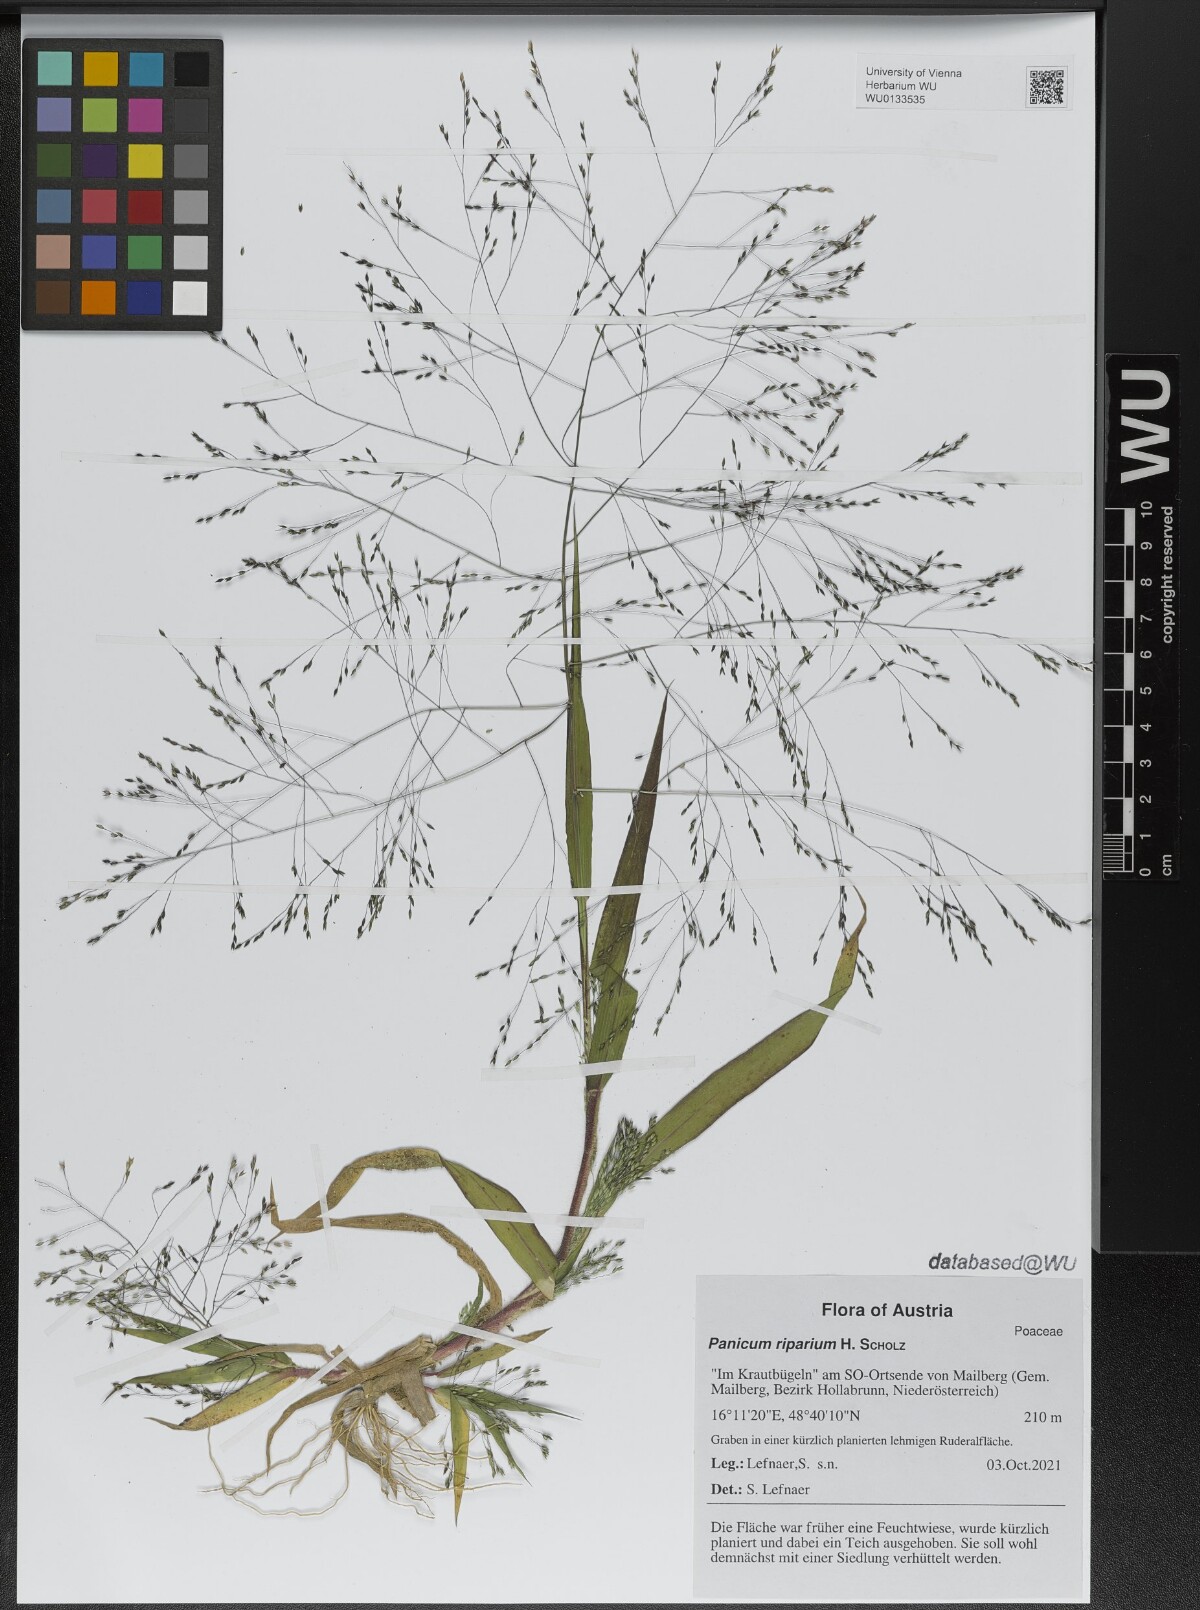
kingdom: Plantae
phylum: Tracheophyta
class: Liliopsida
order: Poales
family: Poaceae
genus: Panicum
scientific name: Panicum capillare
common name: Witch-grass
